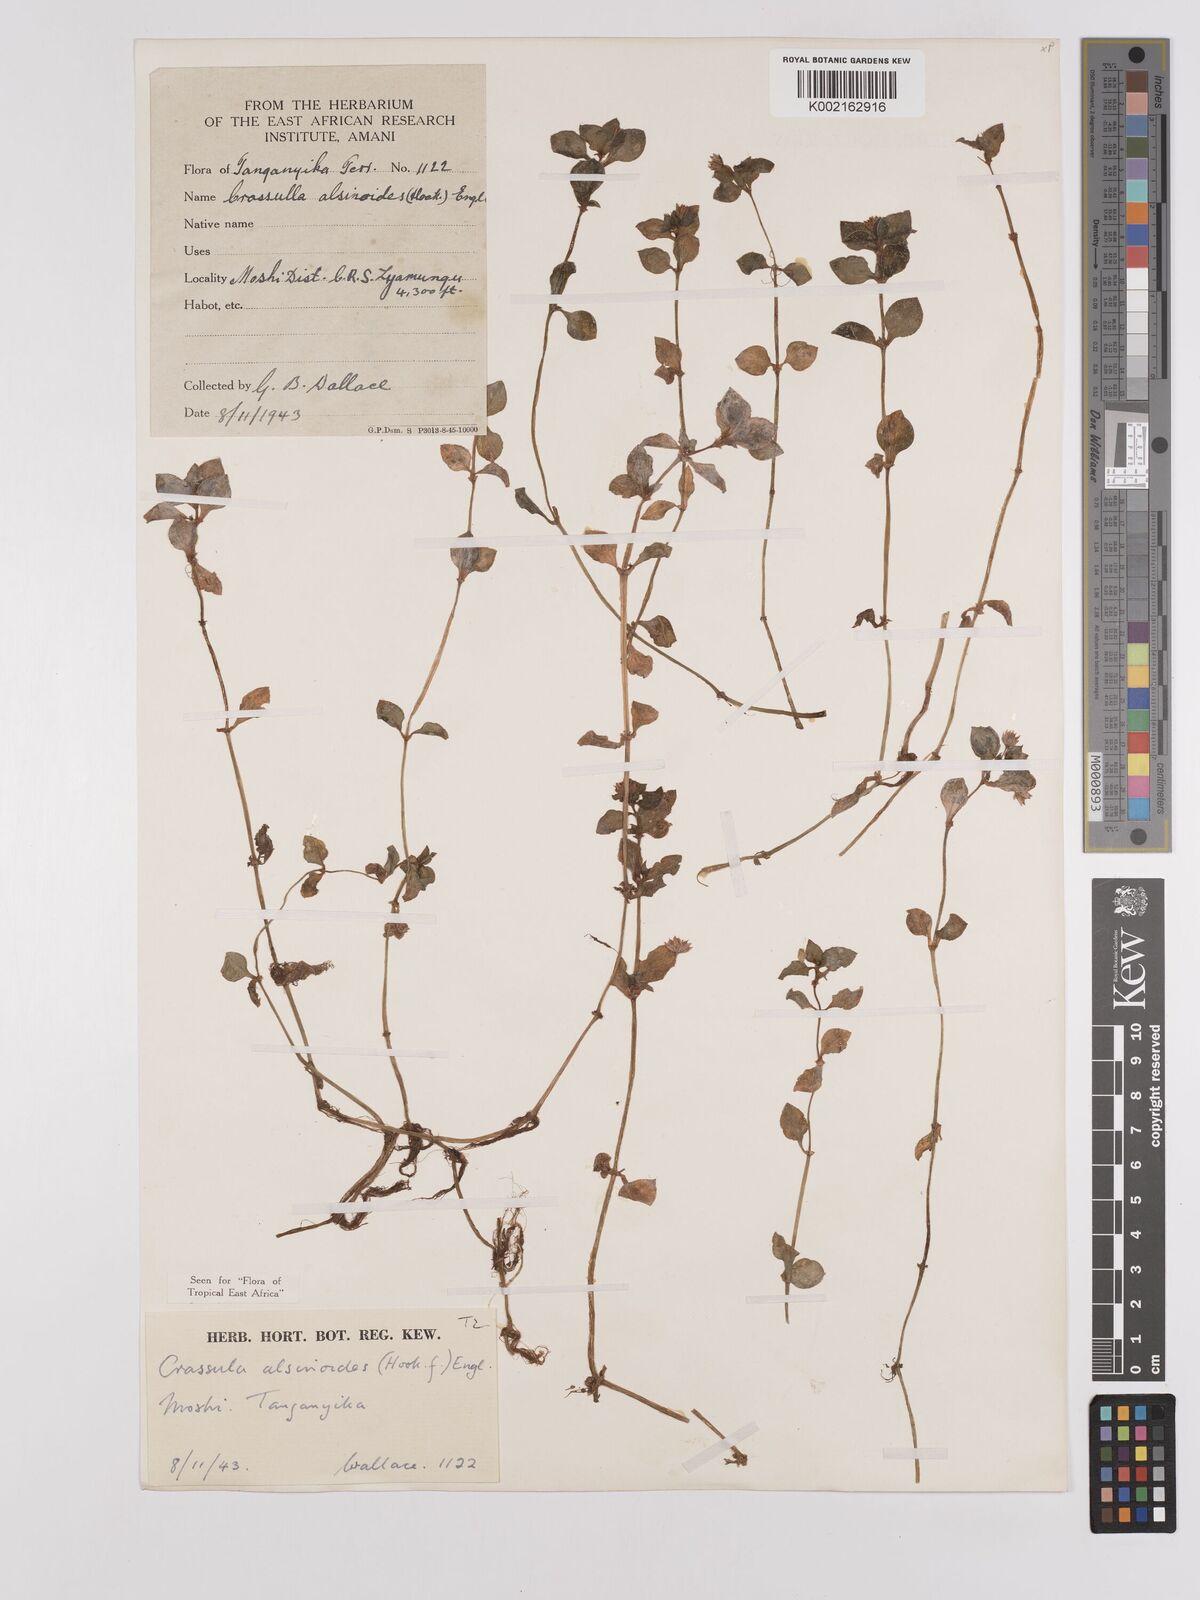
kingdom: Plantae
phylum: Tracheophyta
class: Magnoliopsida
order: Saxifragales
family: Crassulaceae
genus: Crassula
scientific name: Crassula alsinoides
